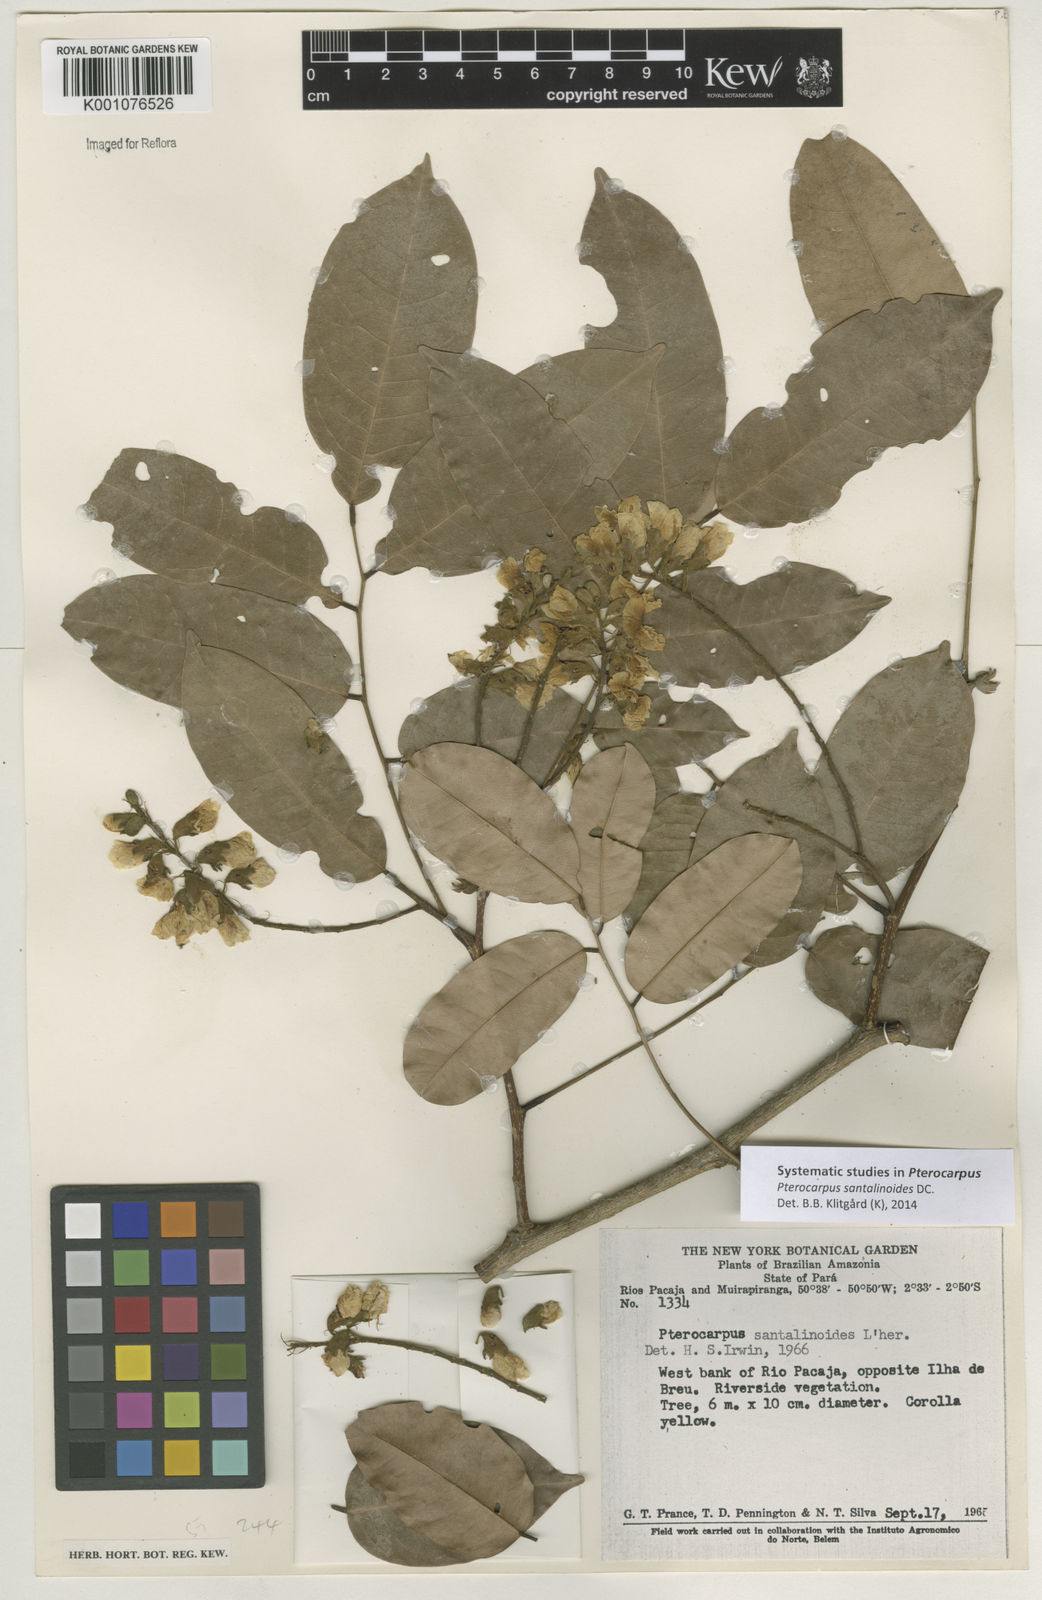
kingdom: Plantae
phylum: Tracheophyta
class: Magnoliopsida
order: Fabales
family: Fabaceae
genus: Pterocarpus
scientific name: Pterocarpus santalinoides
